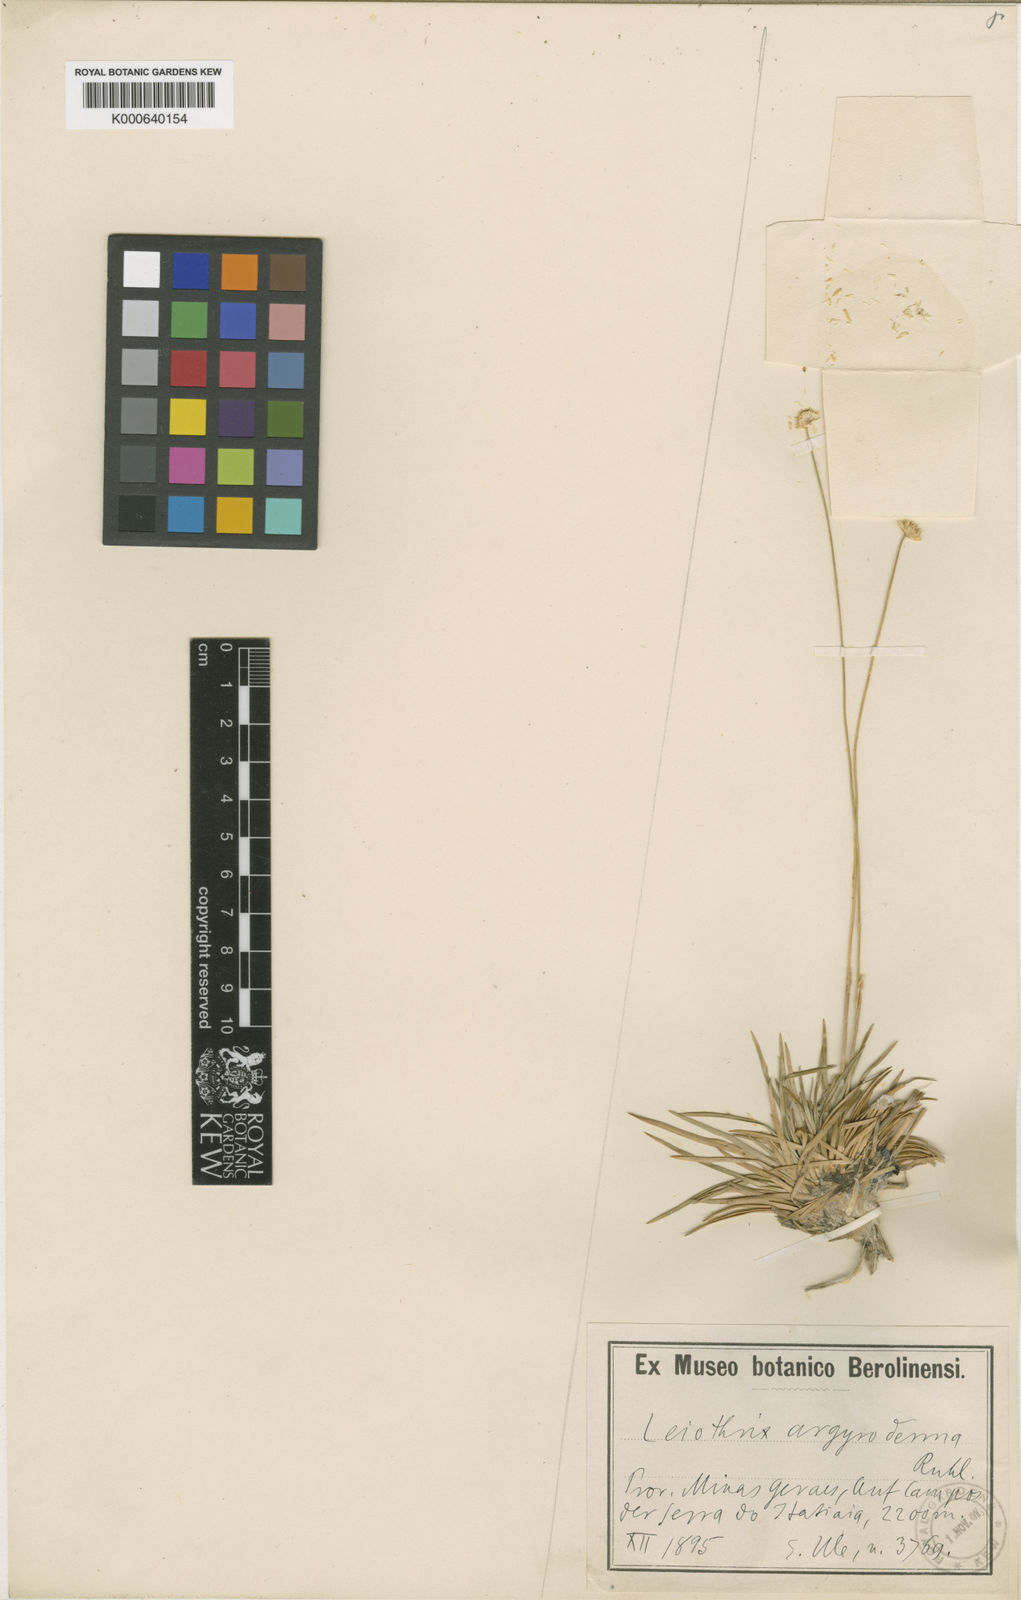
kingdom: Plantae
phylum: Tracheophyta
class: Liliopsida
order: Poales
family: Eriocaulaceae
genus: Leiothrix
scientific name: Leiothrix argyroderma
